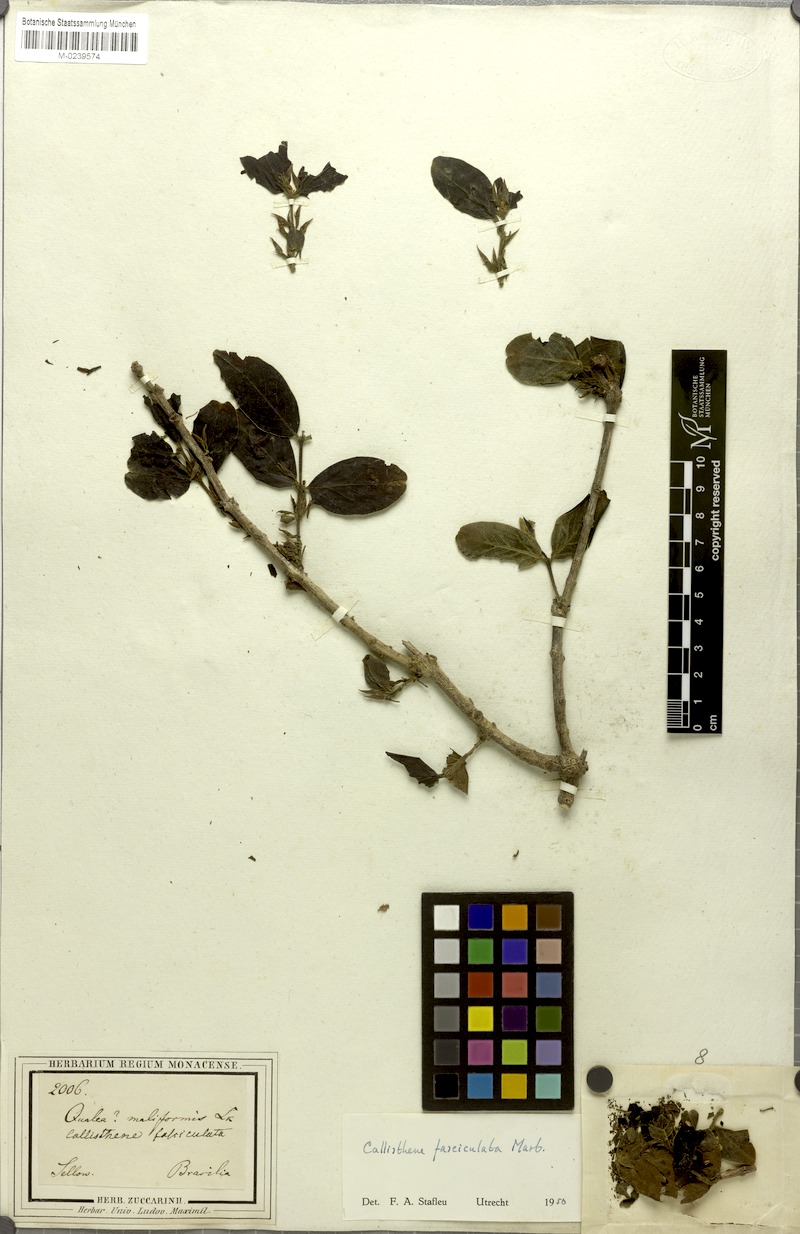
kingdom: Plantae
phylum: Tracheophyta
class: Magnoliopsida
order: Myrtales
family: Vochysiaceae
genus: Callisthene
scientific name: Callisthene fasciculata
